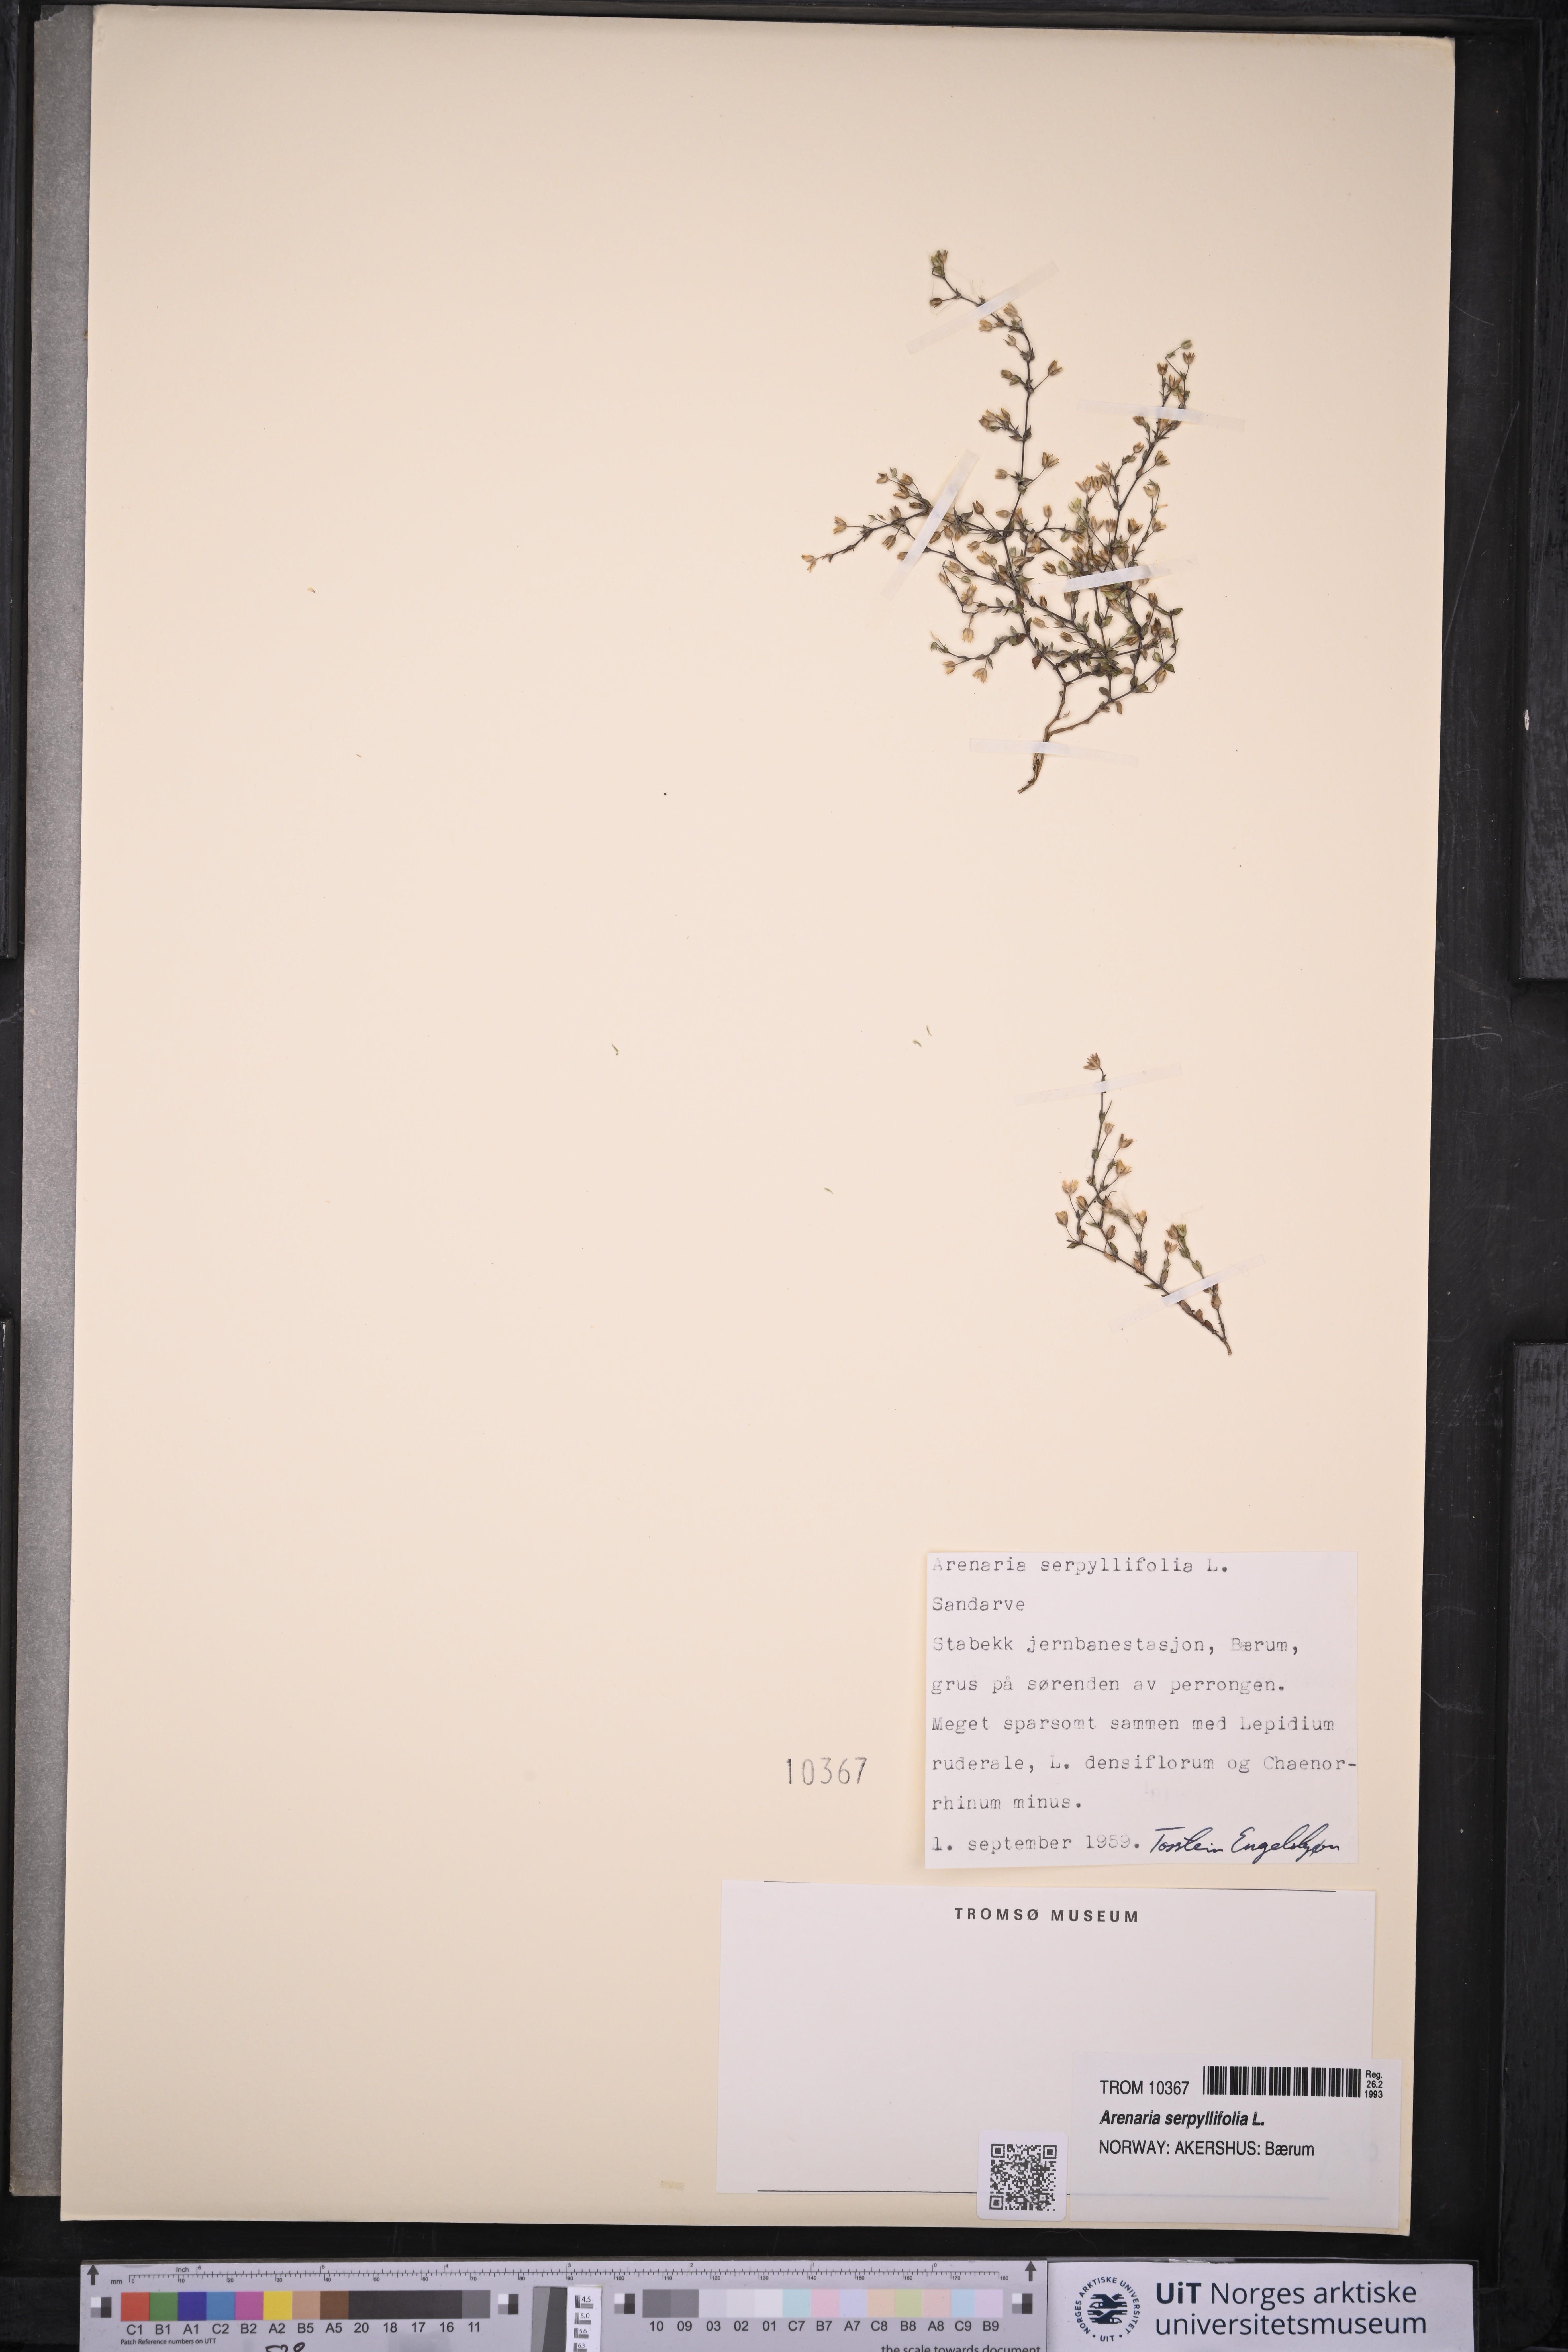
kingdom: Plantae
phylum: Tracheophyta
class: Magnoliopsida
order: Caryophyllales
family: Caryophyllaceae
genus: Arenaria
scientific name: Arenaria serpyllifolia
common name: Thyme-leaved sandwort
